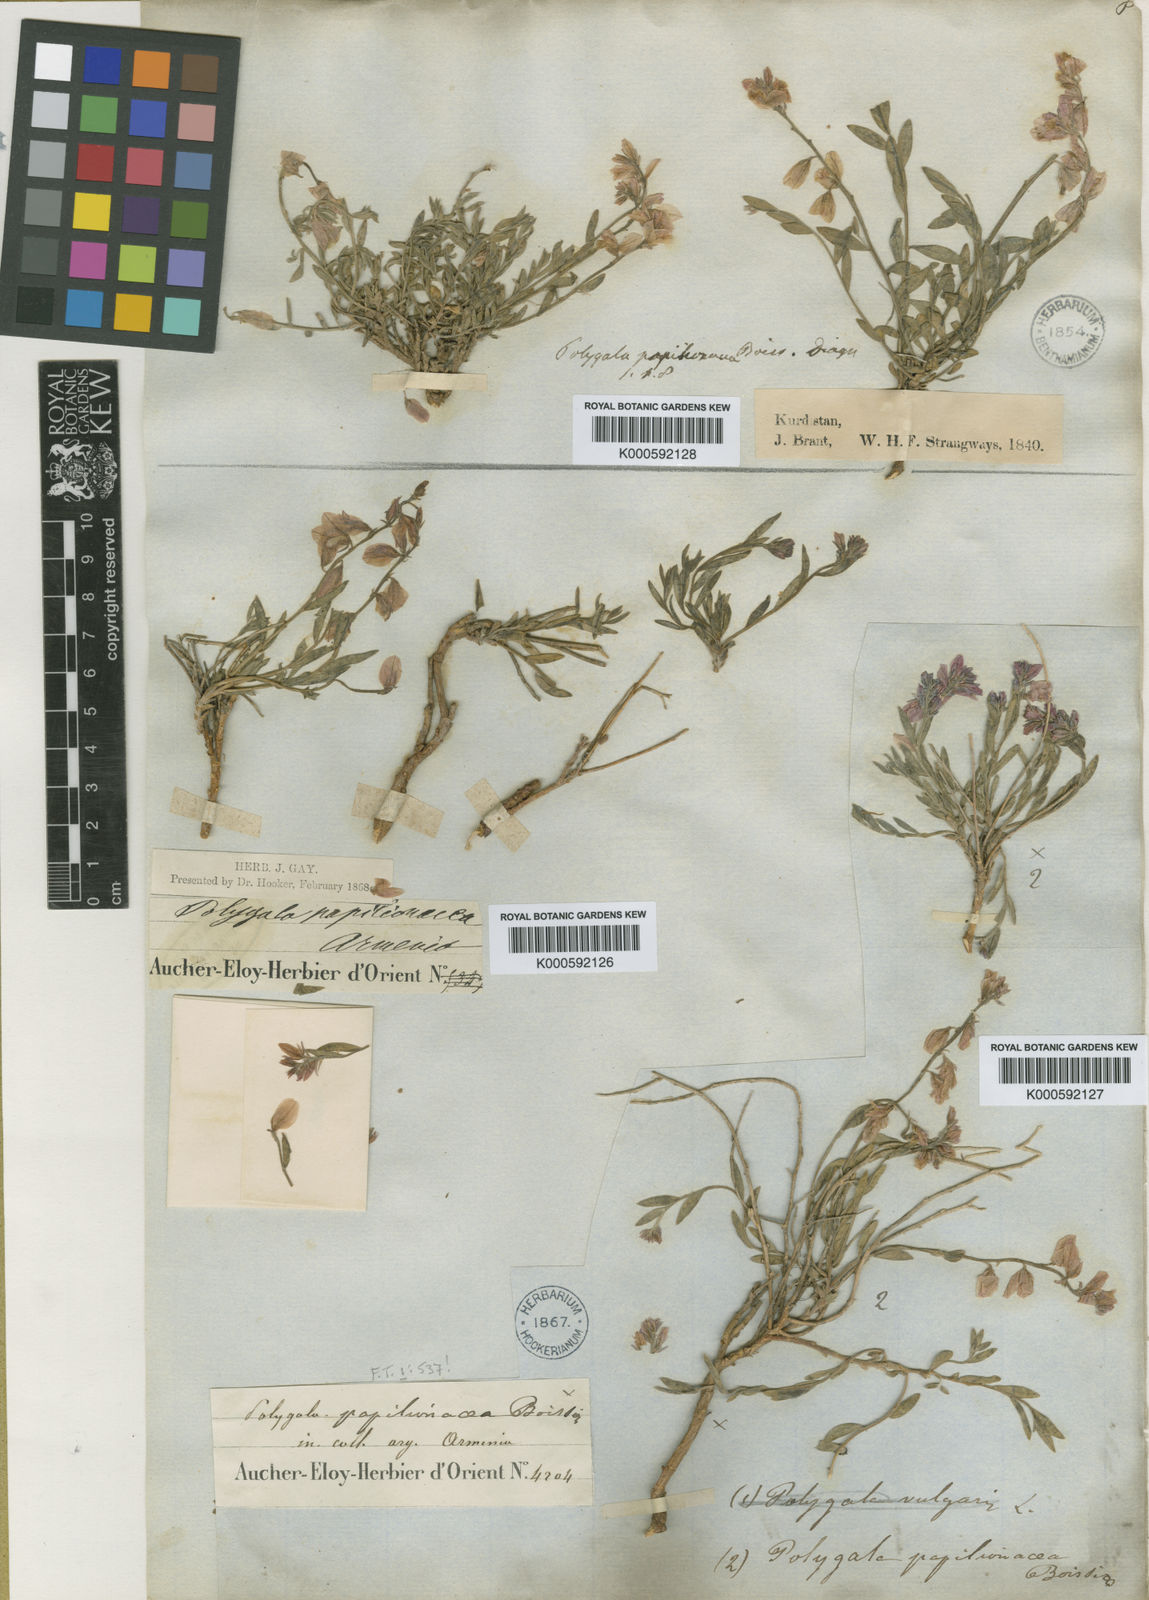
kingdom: Plantae
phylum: Tracheophyta
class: Magnoliopsida
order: Fabales
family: Polygalaceae
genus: Polygala
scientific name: Polygala papilionacea
